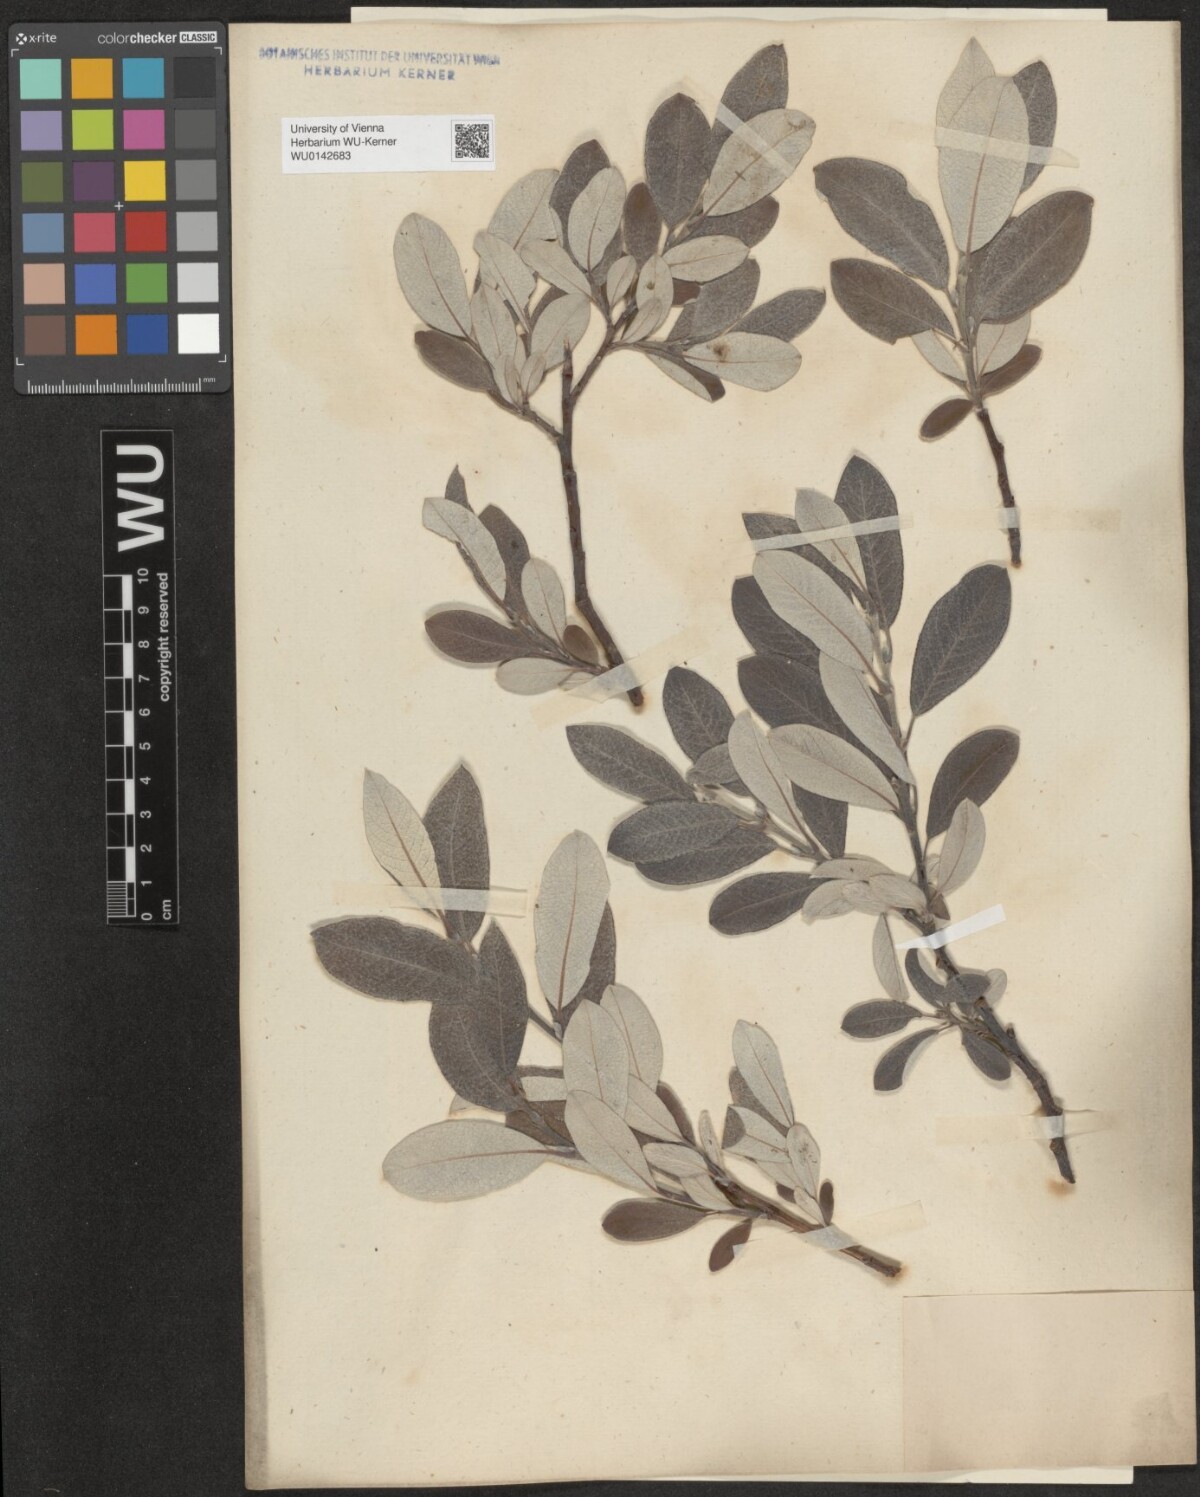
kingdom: Plantae
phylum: Tracheophyta
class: Magnoliopsida
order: Malpighiales
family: Salicaceae
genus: Salix
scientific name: Salix helvetica
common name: Swiss willow
